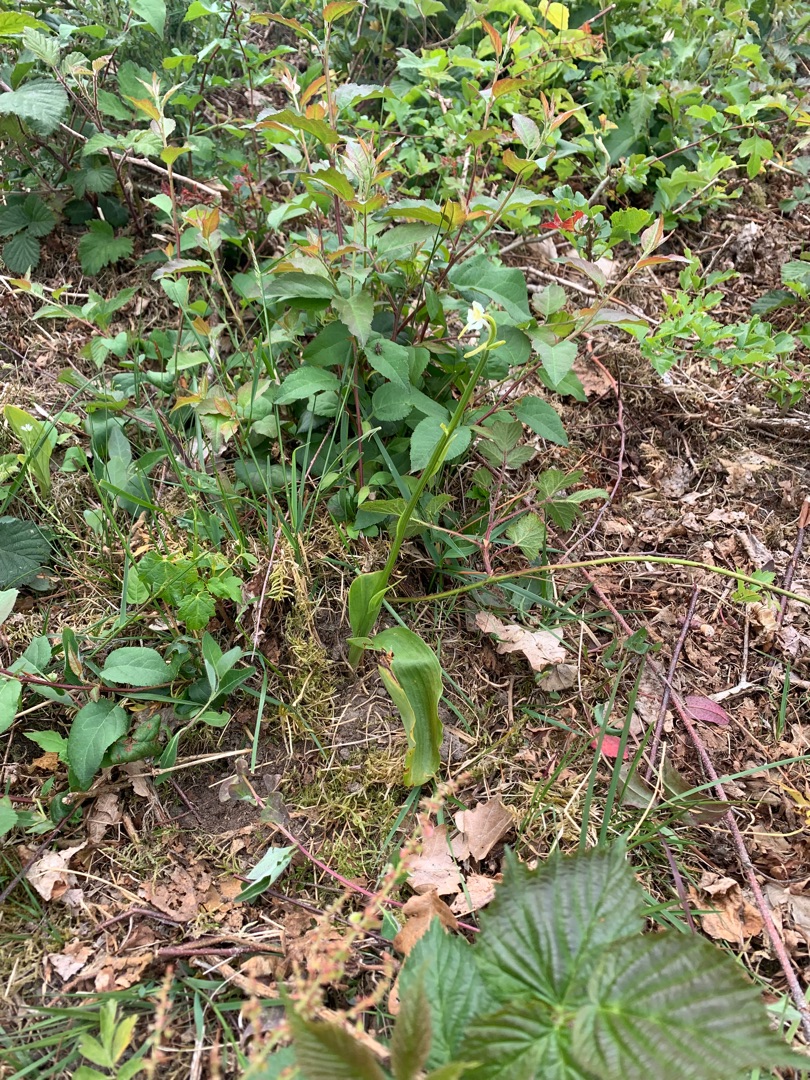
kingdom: Plantae
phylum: Tracheophyta
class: Liliopsida
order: Asparagales
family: Orchidaceae
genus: Platanthera
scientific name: Platanthera chlorantha
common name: Skov-gøgelilje
